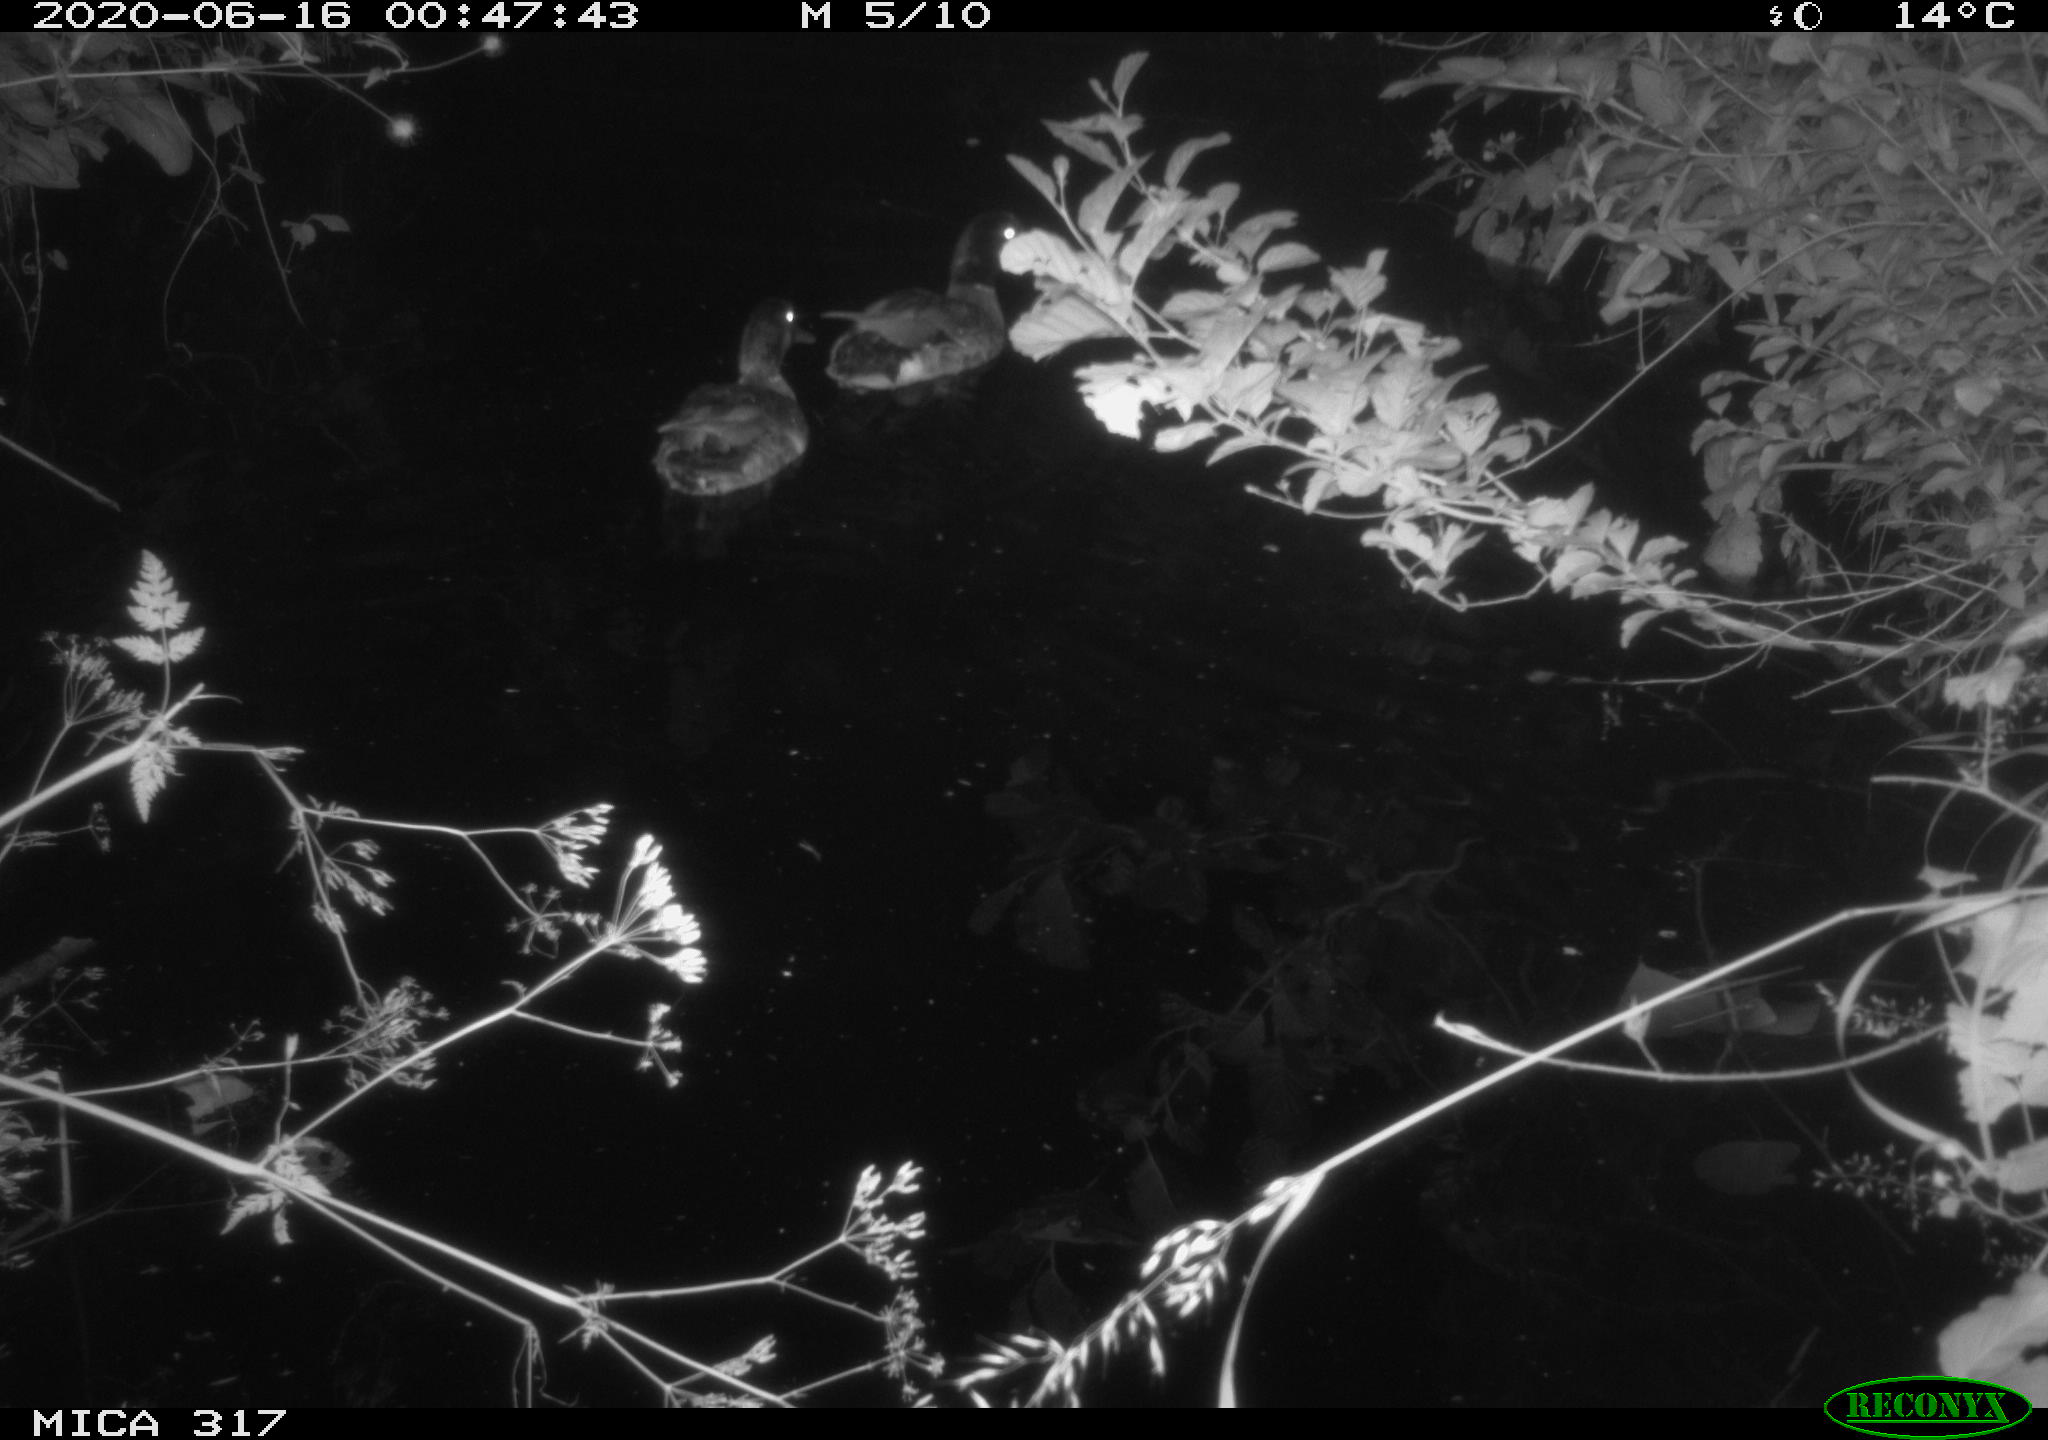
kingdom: Animalia
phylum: Chordata
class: Aves
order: Anseriformes
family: Anatidae
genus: Anas
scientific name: Anas platyrhynchos
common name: Mallard
